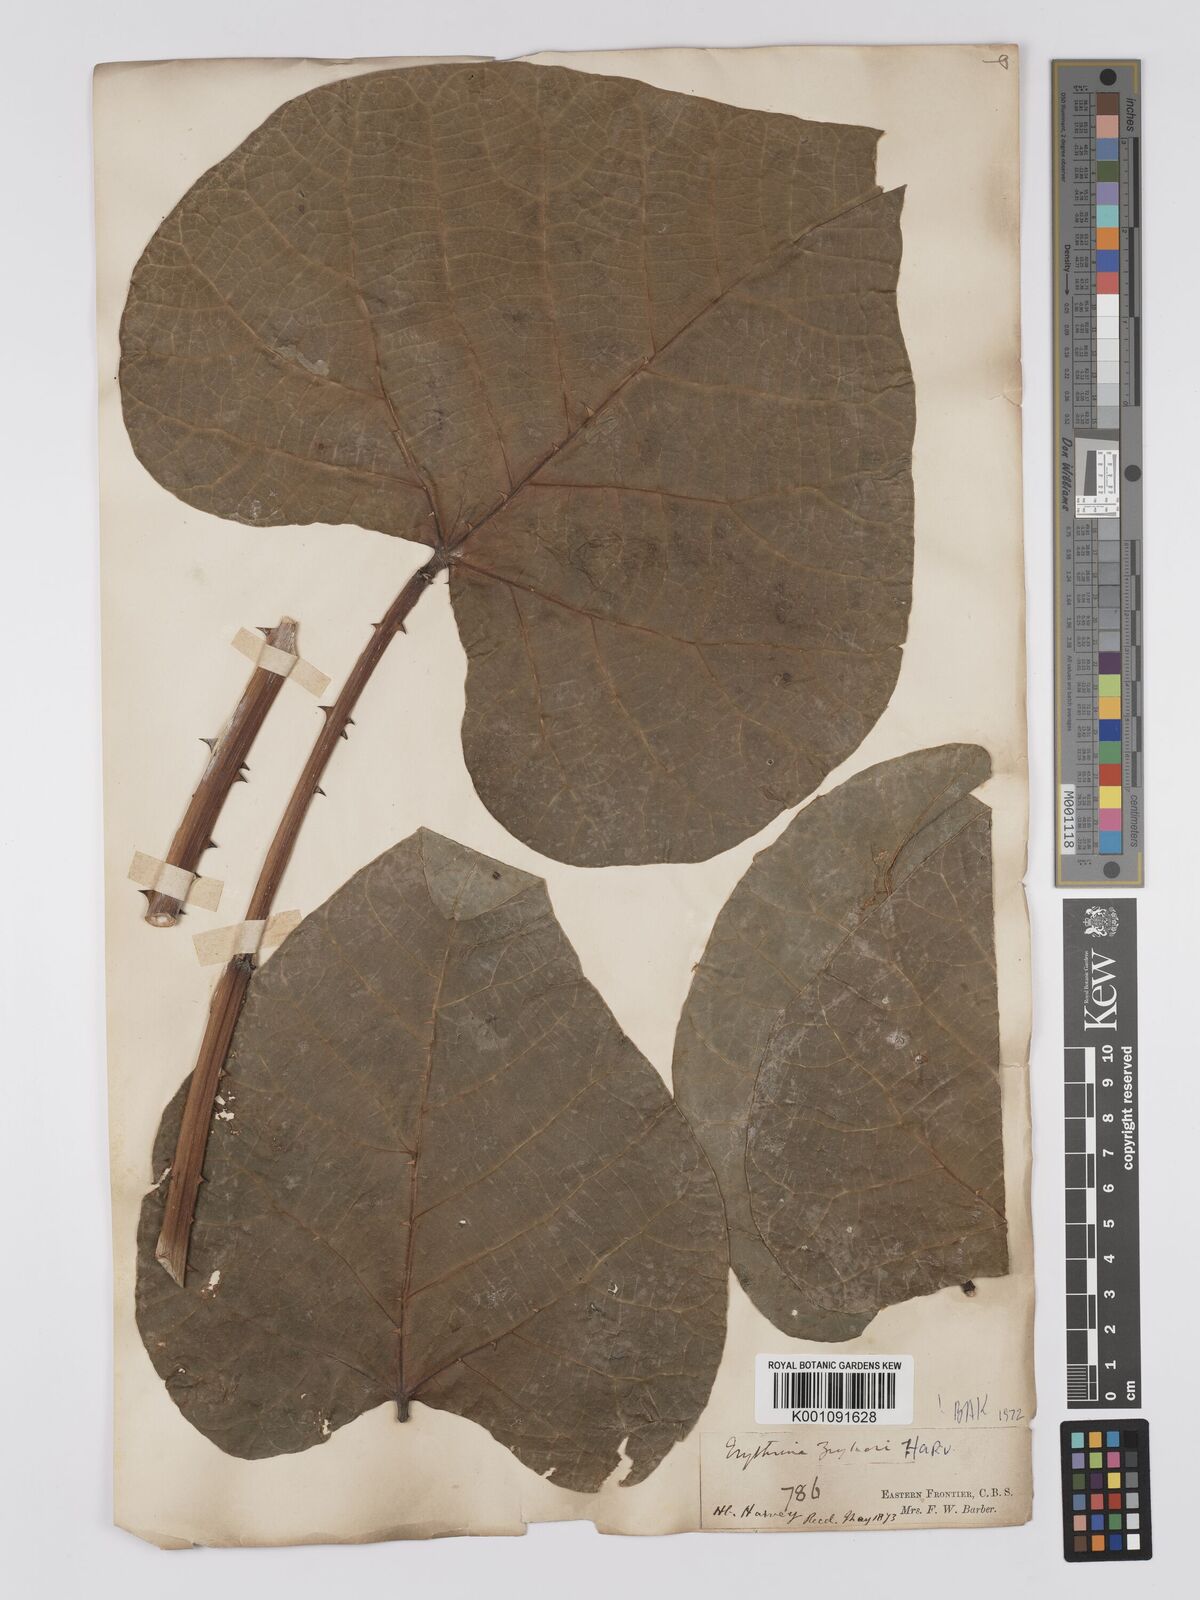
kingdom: Plantae
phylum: Tracheophyta
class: Magnoliopsida
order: Fabales
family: Fabaceae
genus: Erythrina
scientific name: Erythrina zeyheri
